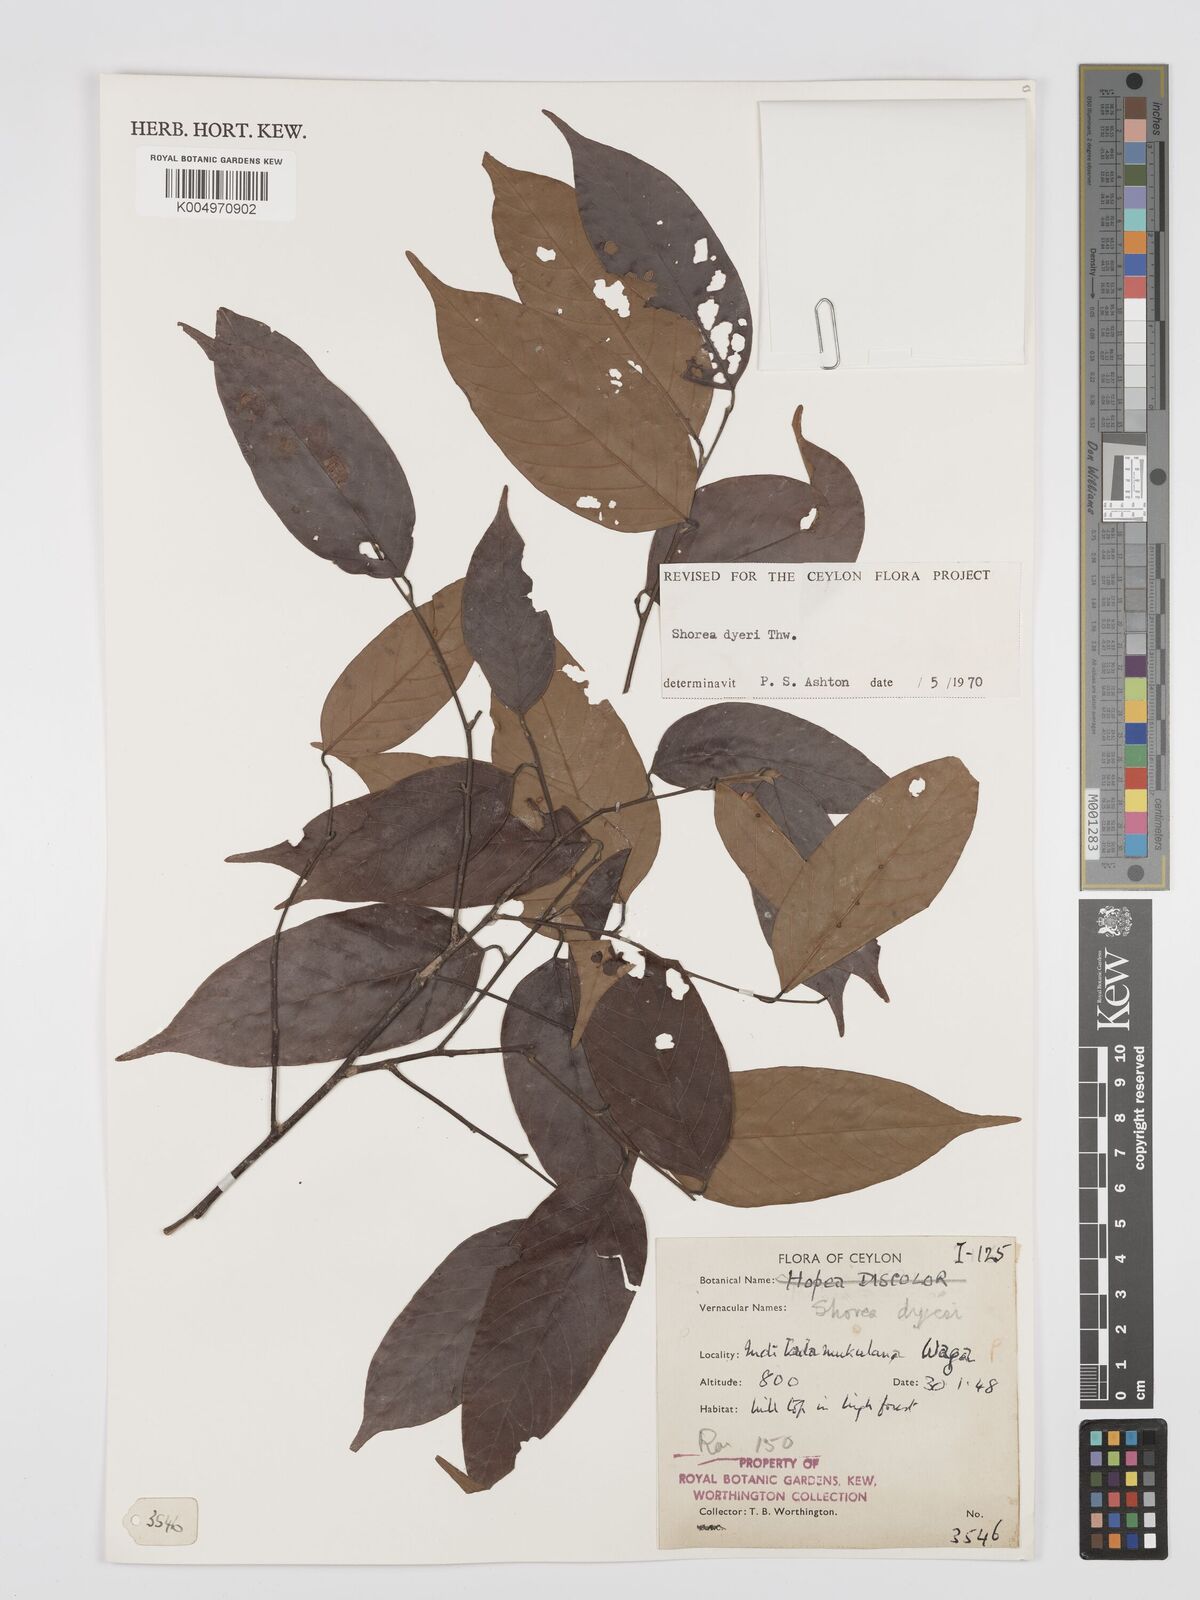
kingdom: Plantae
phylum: Tracheophyta
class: Magnoliopsida
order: Malvales
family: Dipterocarpaceae
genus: Shorea
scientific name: Shorea dyeri
